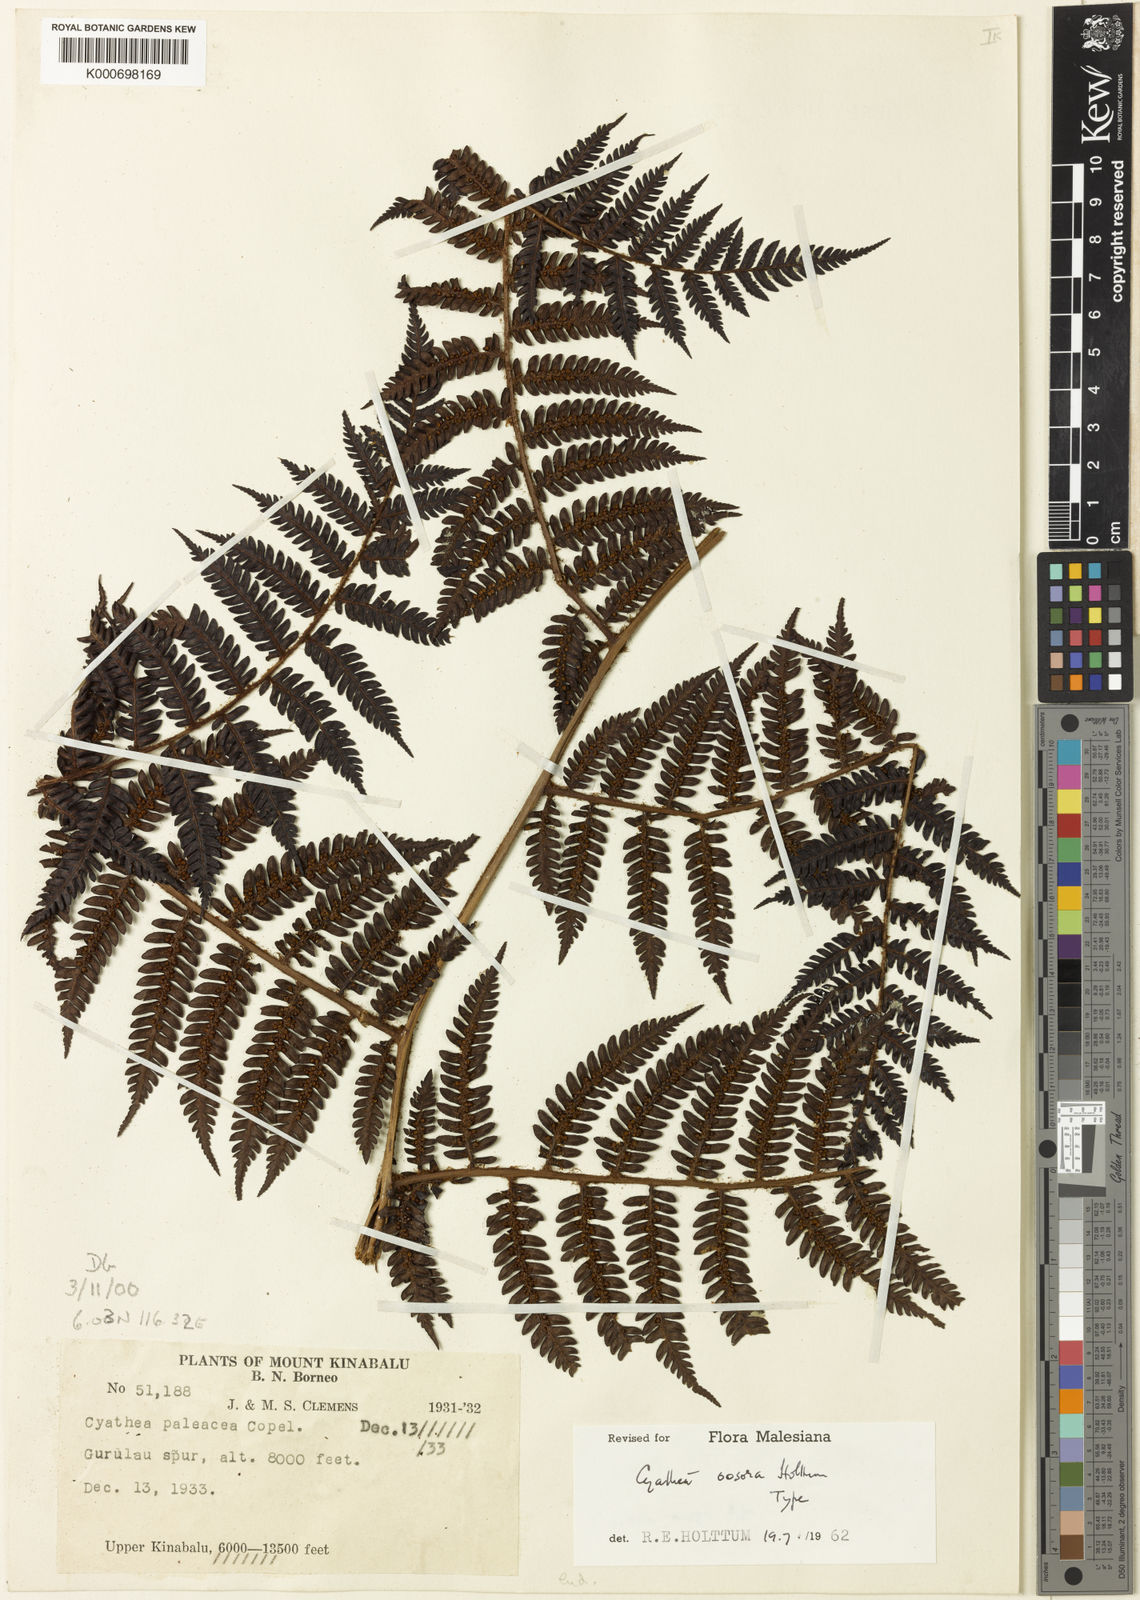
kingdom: Plantae
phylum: Tracheophyta
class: Polypodiopsida
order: Cyatheales
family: Cyatheaceae
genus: Alsophila
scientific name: Alsophila oosora
